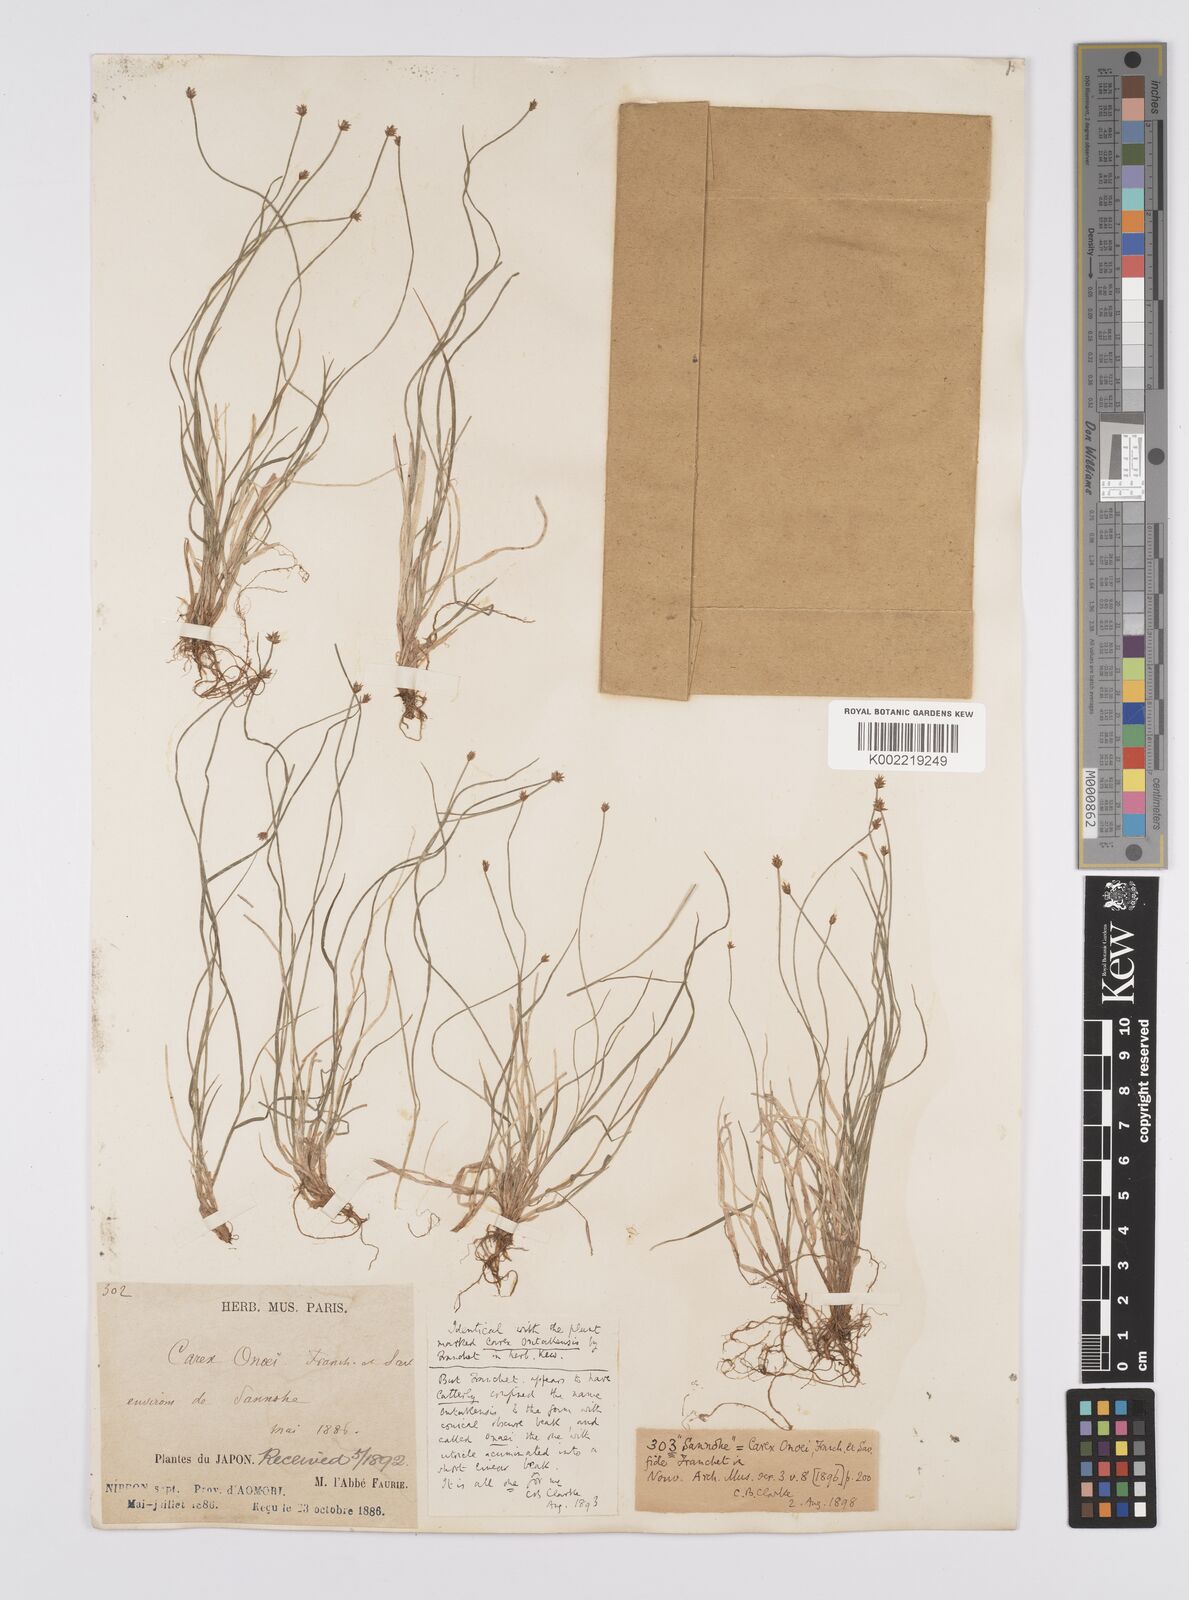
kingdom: Plantae
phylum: Tracheophyta
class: Liliopsida
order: Poales
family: Cyperaceae
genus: Carex
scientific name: Carex onoei
